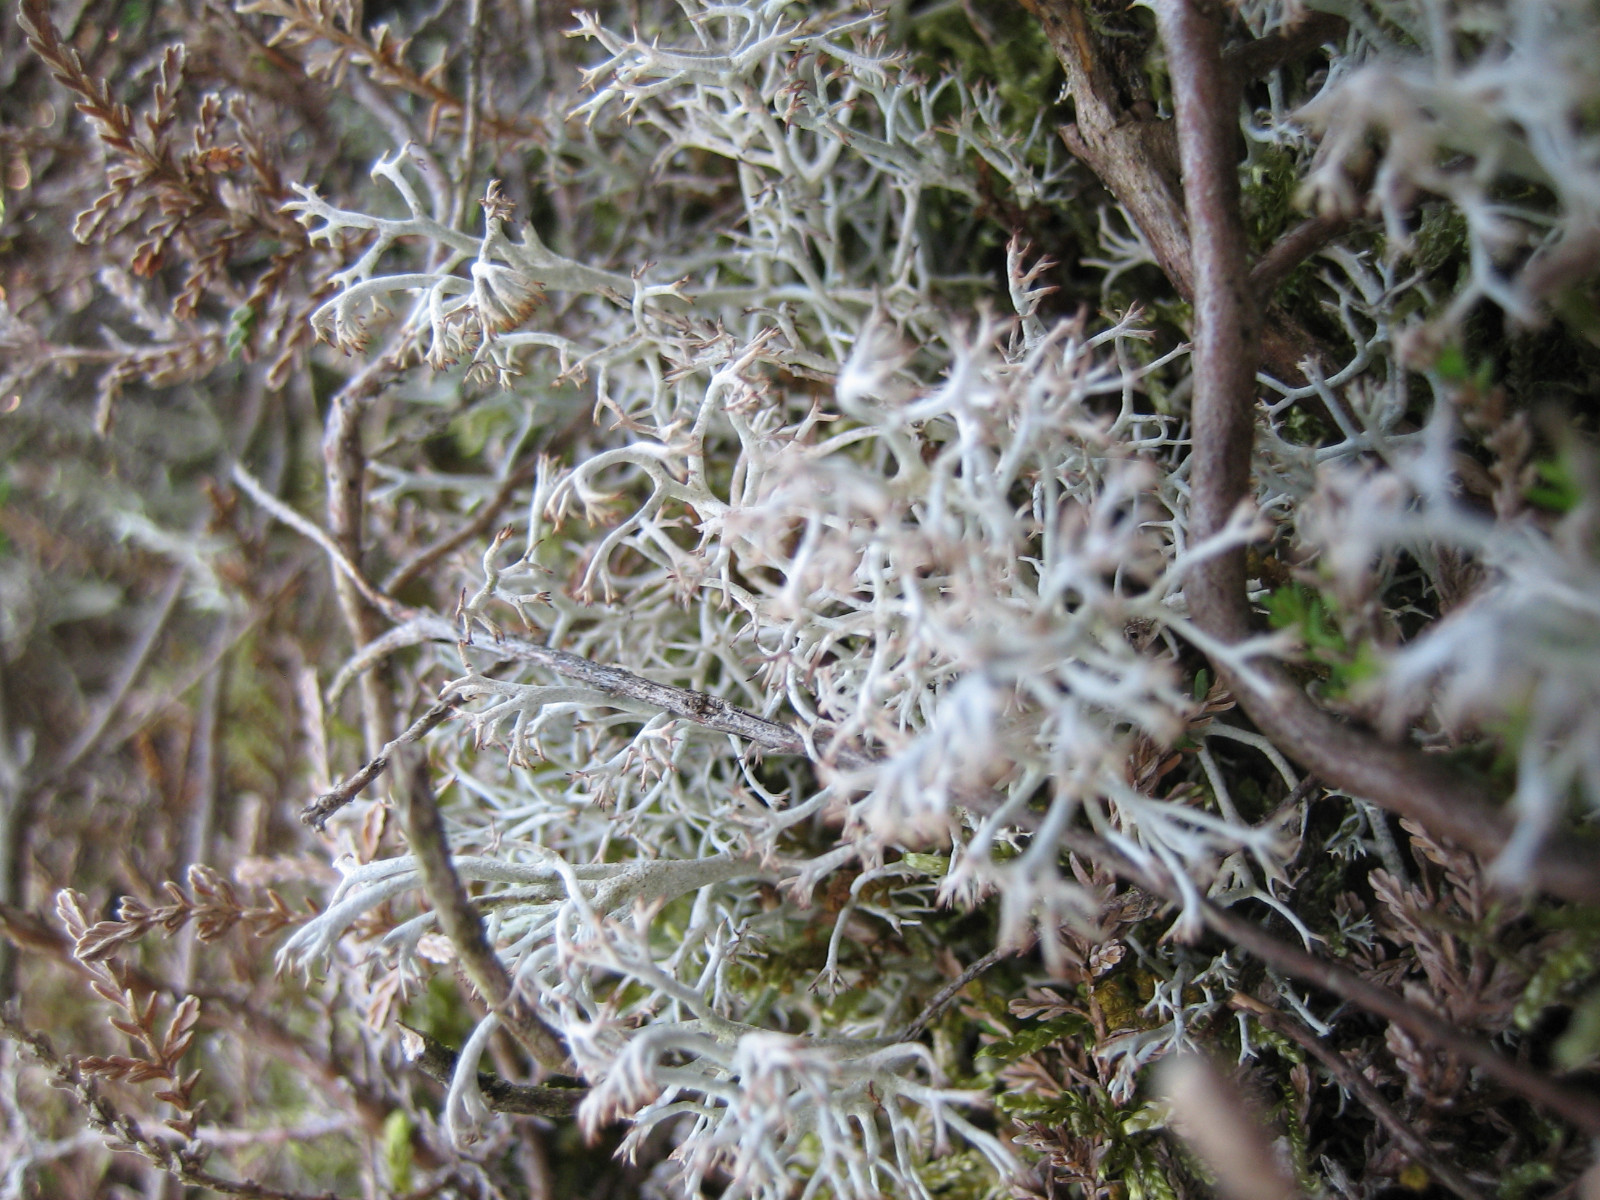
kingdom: Fungi
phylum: Ascomycota
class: Lecanoromycetes
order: Lecanorales
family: Cladoniaceae
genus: Cladonia
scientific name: Cladonia rangiferina
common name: askegrå rensdyrlav
